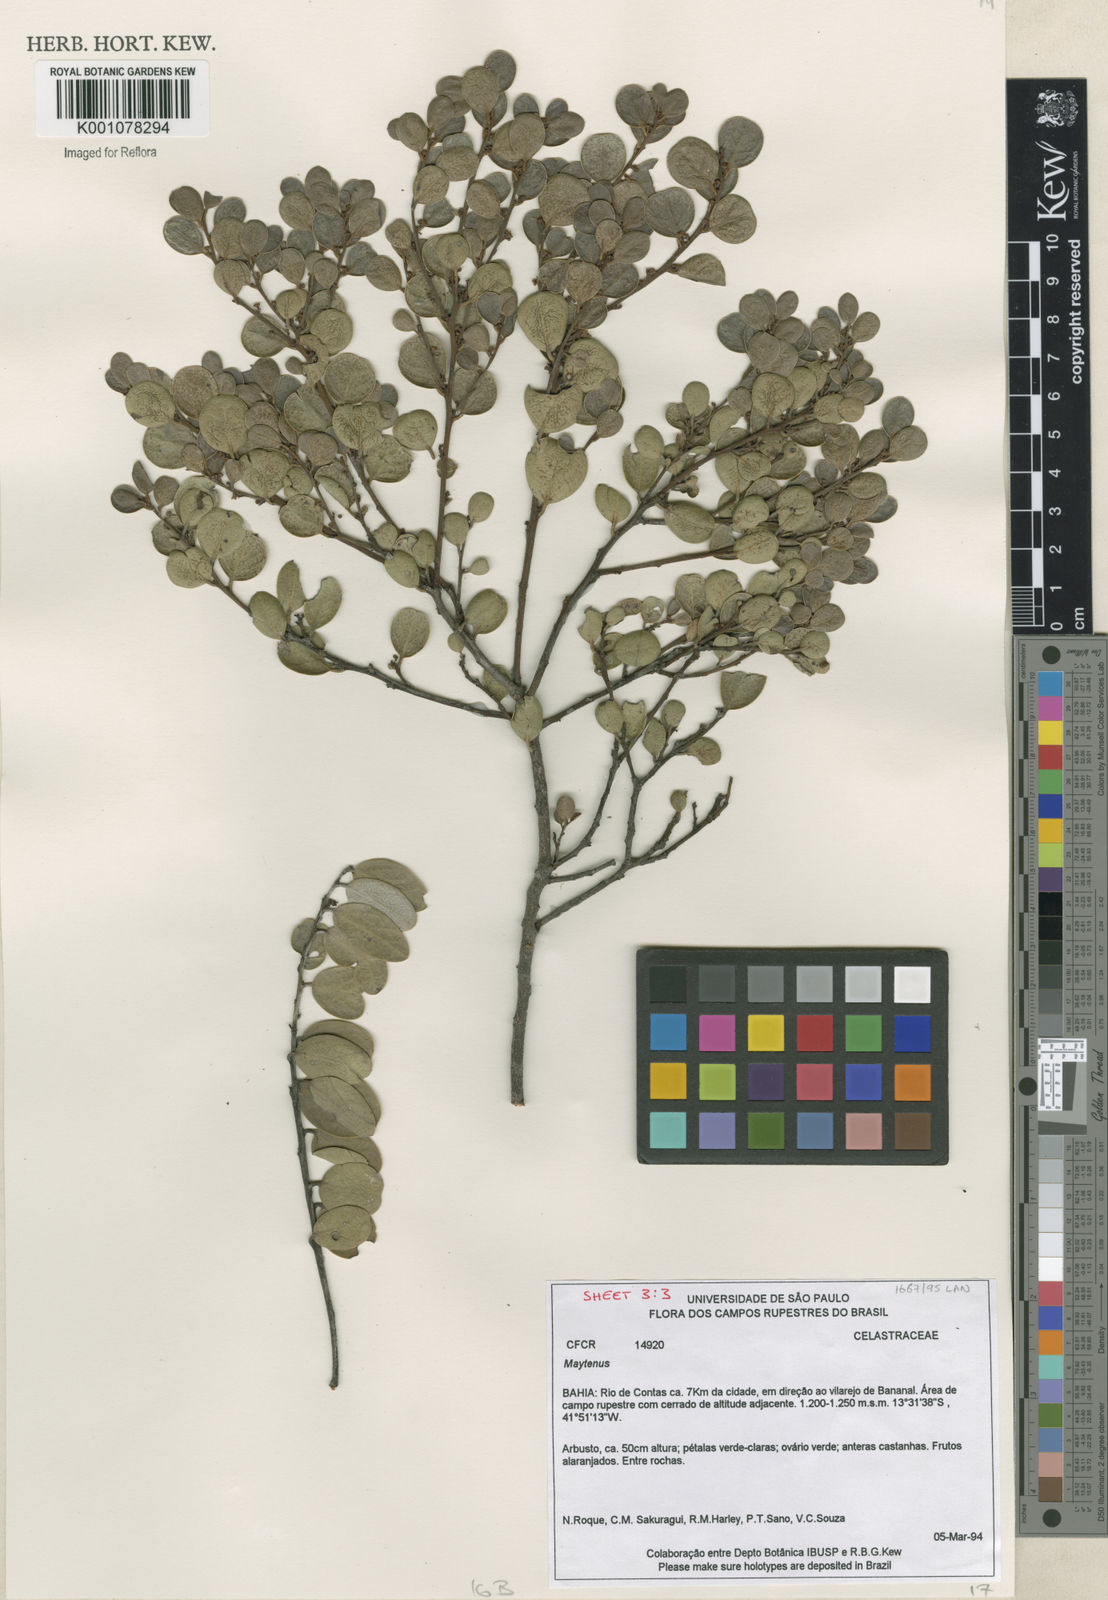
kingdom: Plantae
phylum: Tracheophyta
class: Magnoliopsida
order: Celastrales
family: Celastraceae
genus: Maytenus
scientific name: Maytenus
